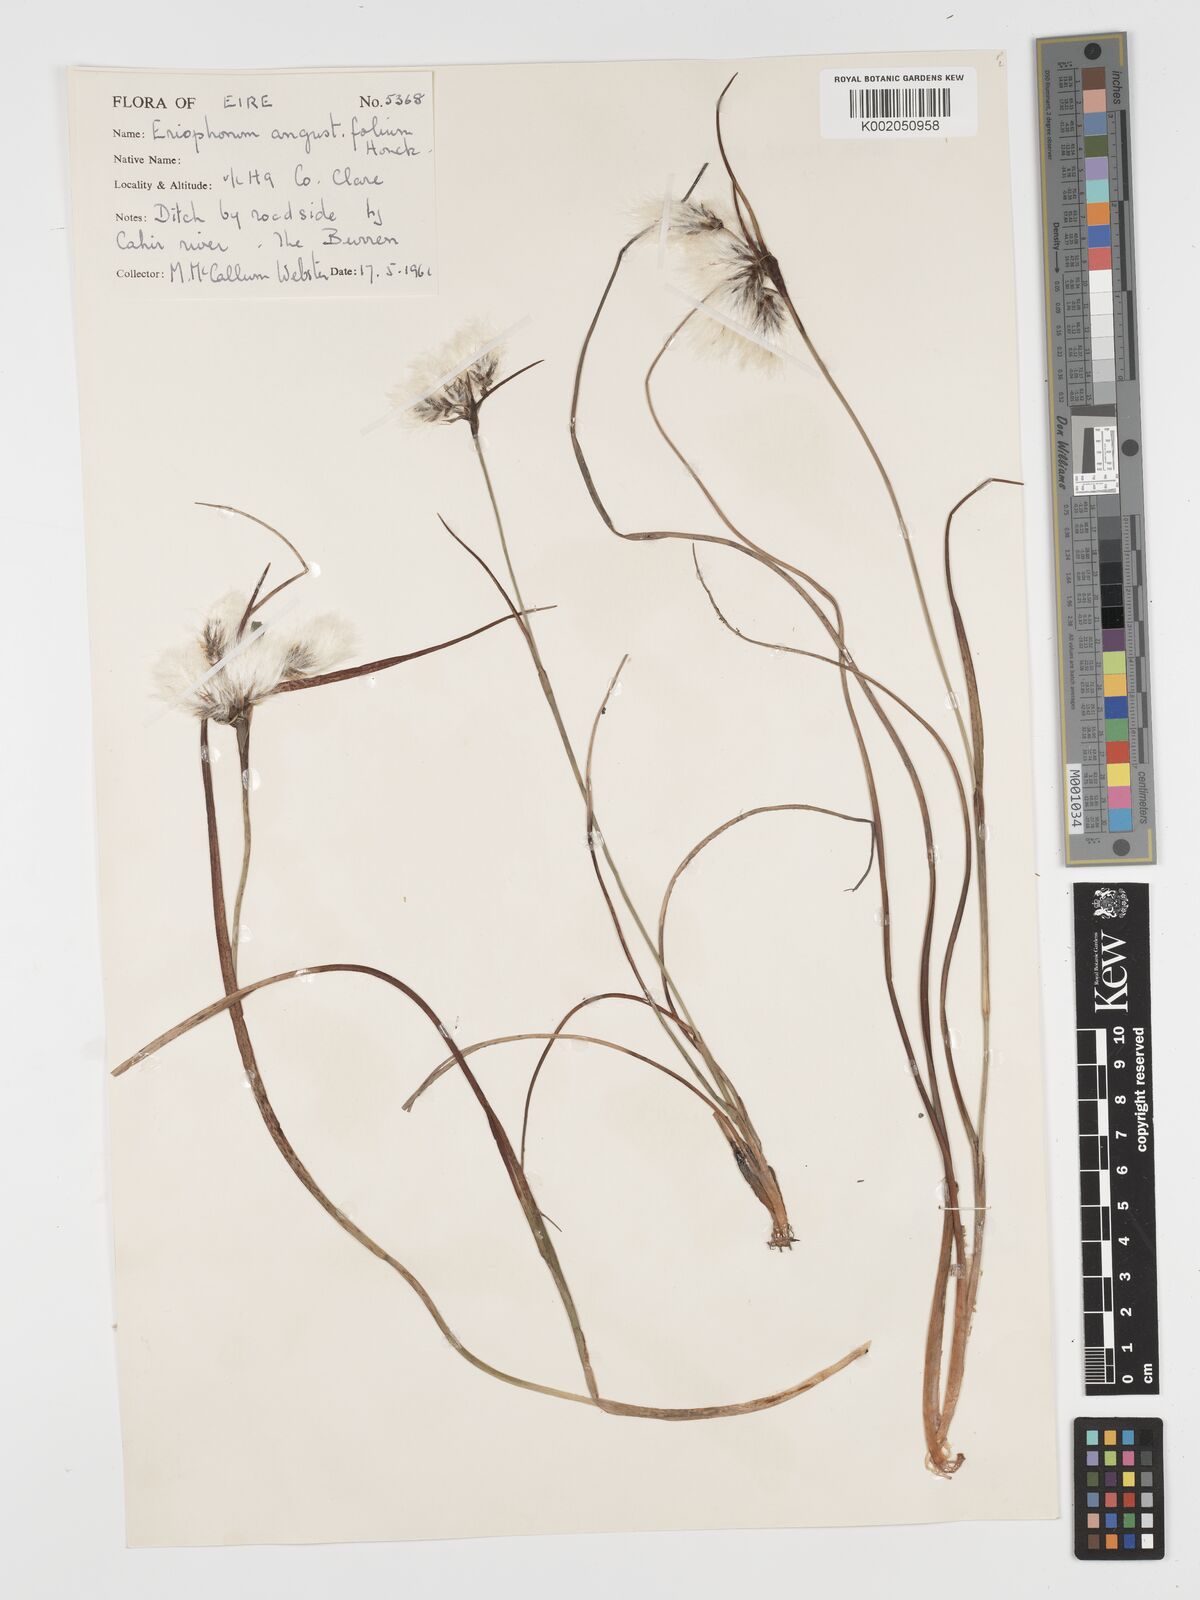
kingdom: Plantae
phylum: Tracheophyta
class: Liliopsida
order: Poales
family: Cyperaceae
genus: Eriophorum
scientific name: Eriophorum angustifolium
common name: Common cottongrass
